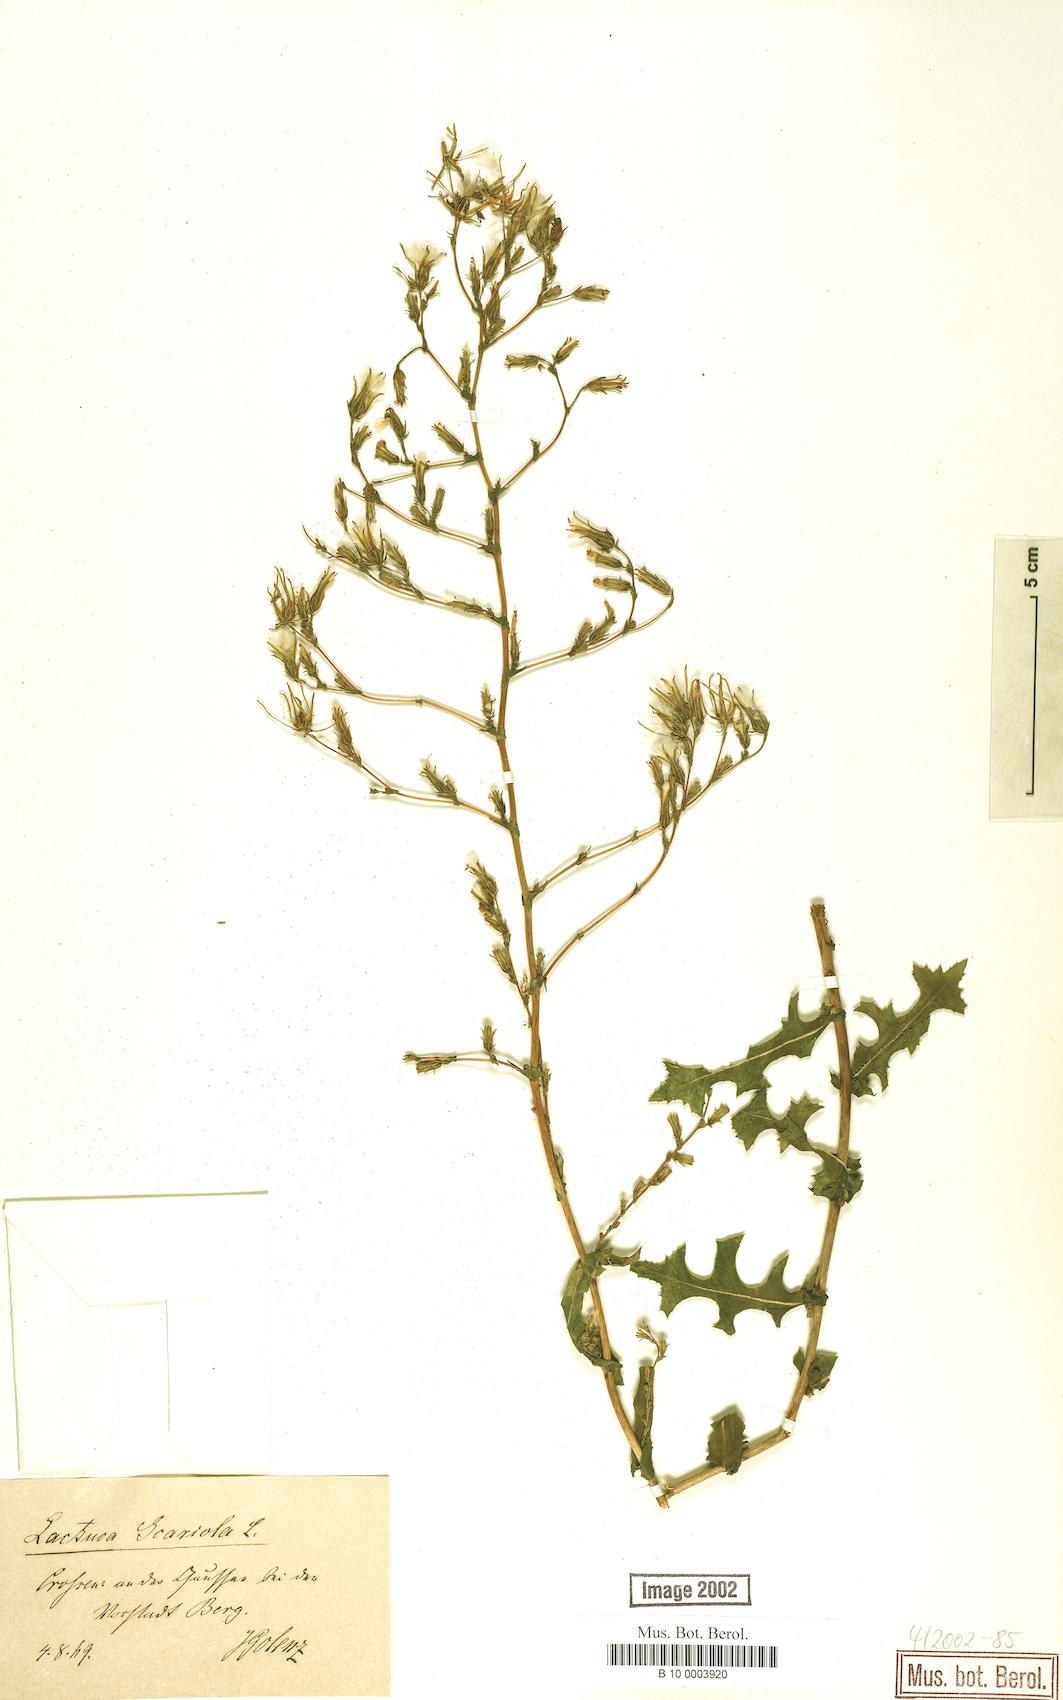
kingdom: Plantae
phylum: Tracheophyta
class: Magnoliopsida
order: Asterales
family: Asteraceae
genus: Lactuca
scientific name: Lactuca serriola
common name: Prickly lettuce
